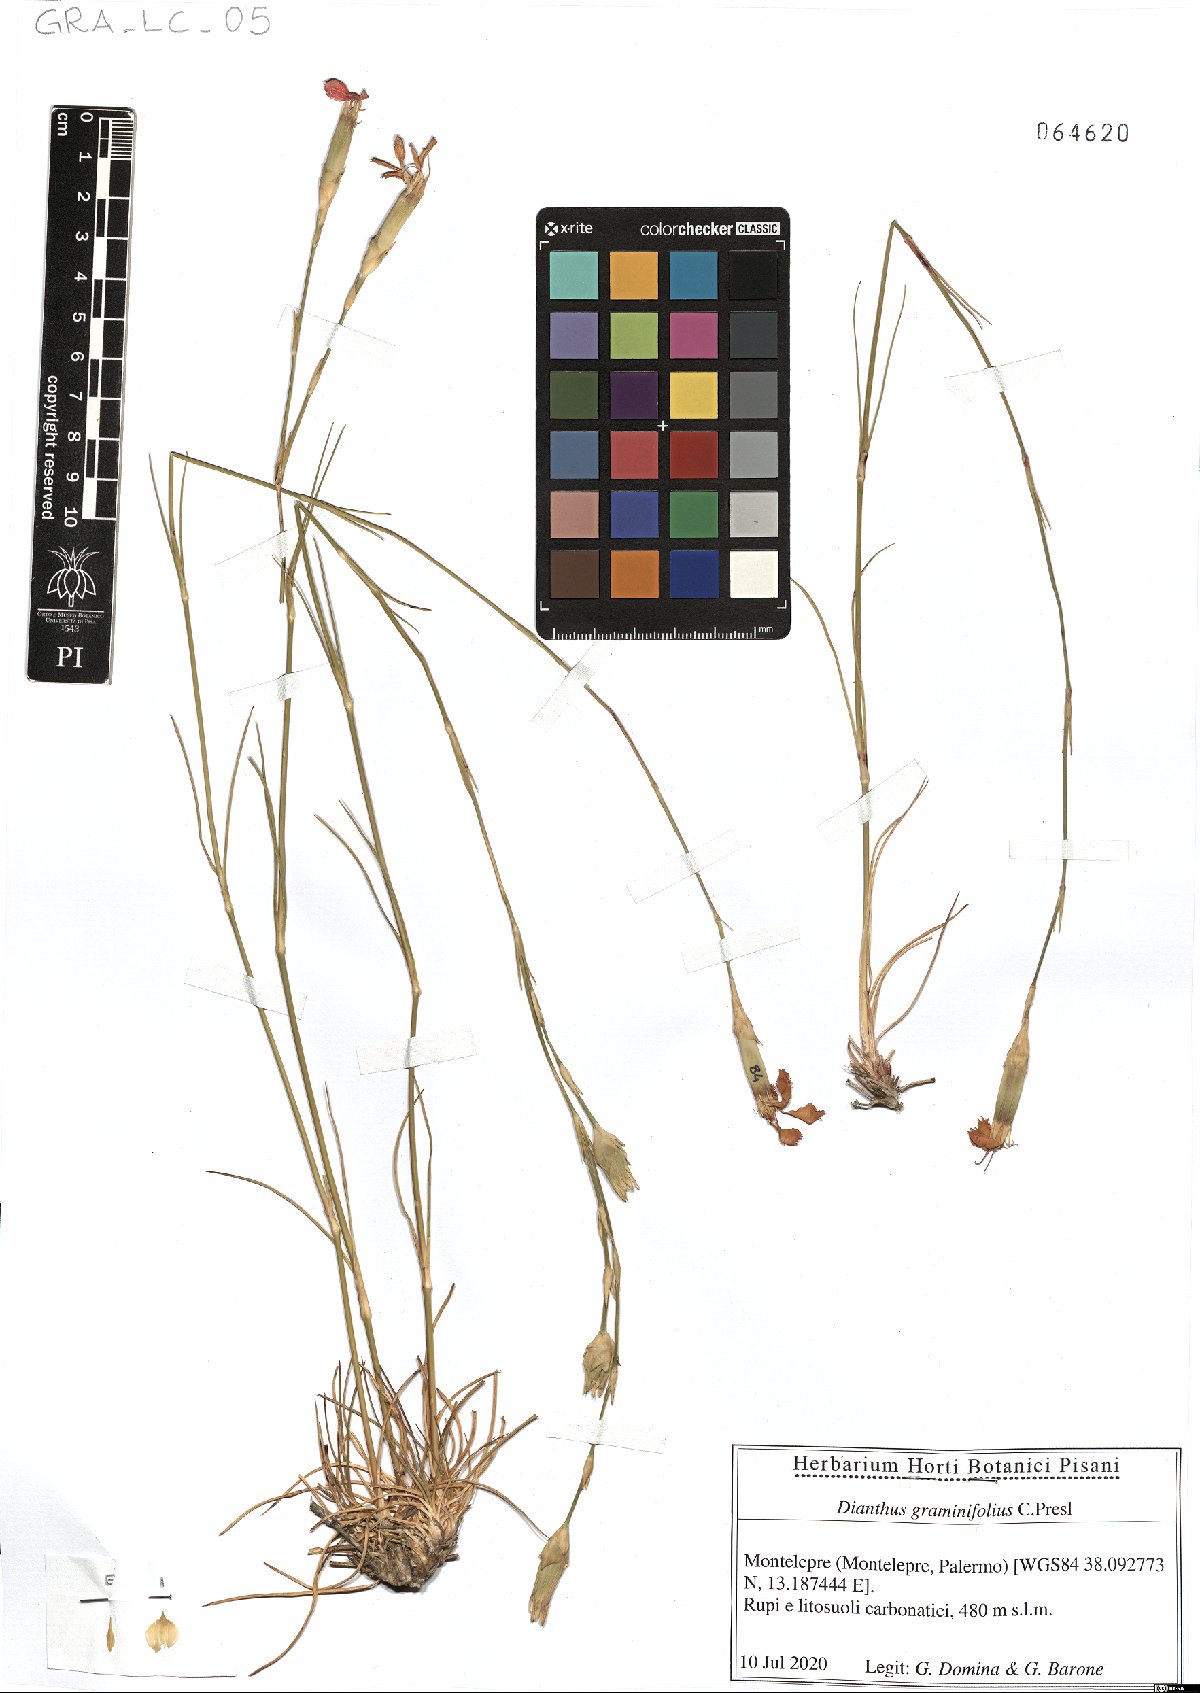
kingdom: Plantae
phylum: Tracheophyta
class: Magnoliopsida
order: Caryophyllales
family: Caryophyllaceae
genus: Dianthus
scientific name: Dianthus graminifolius
